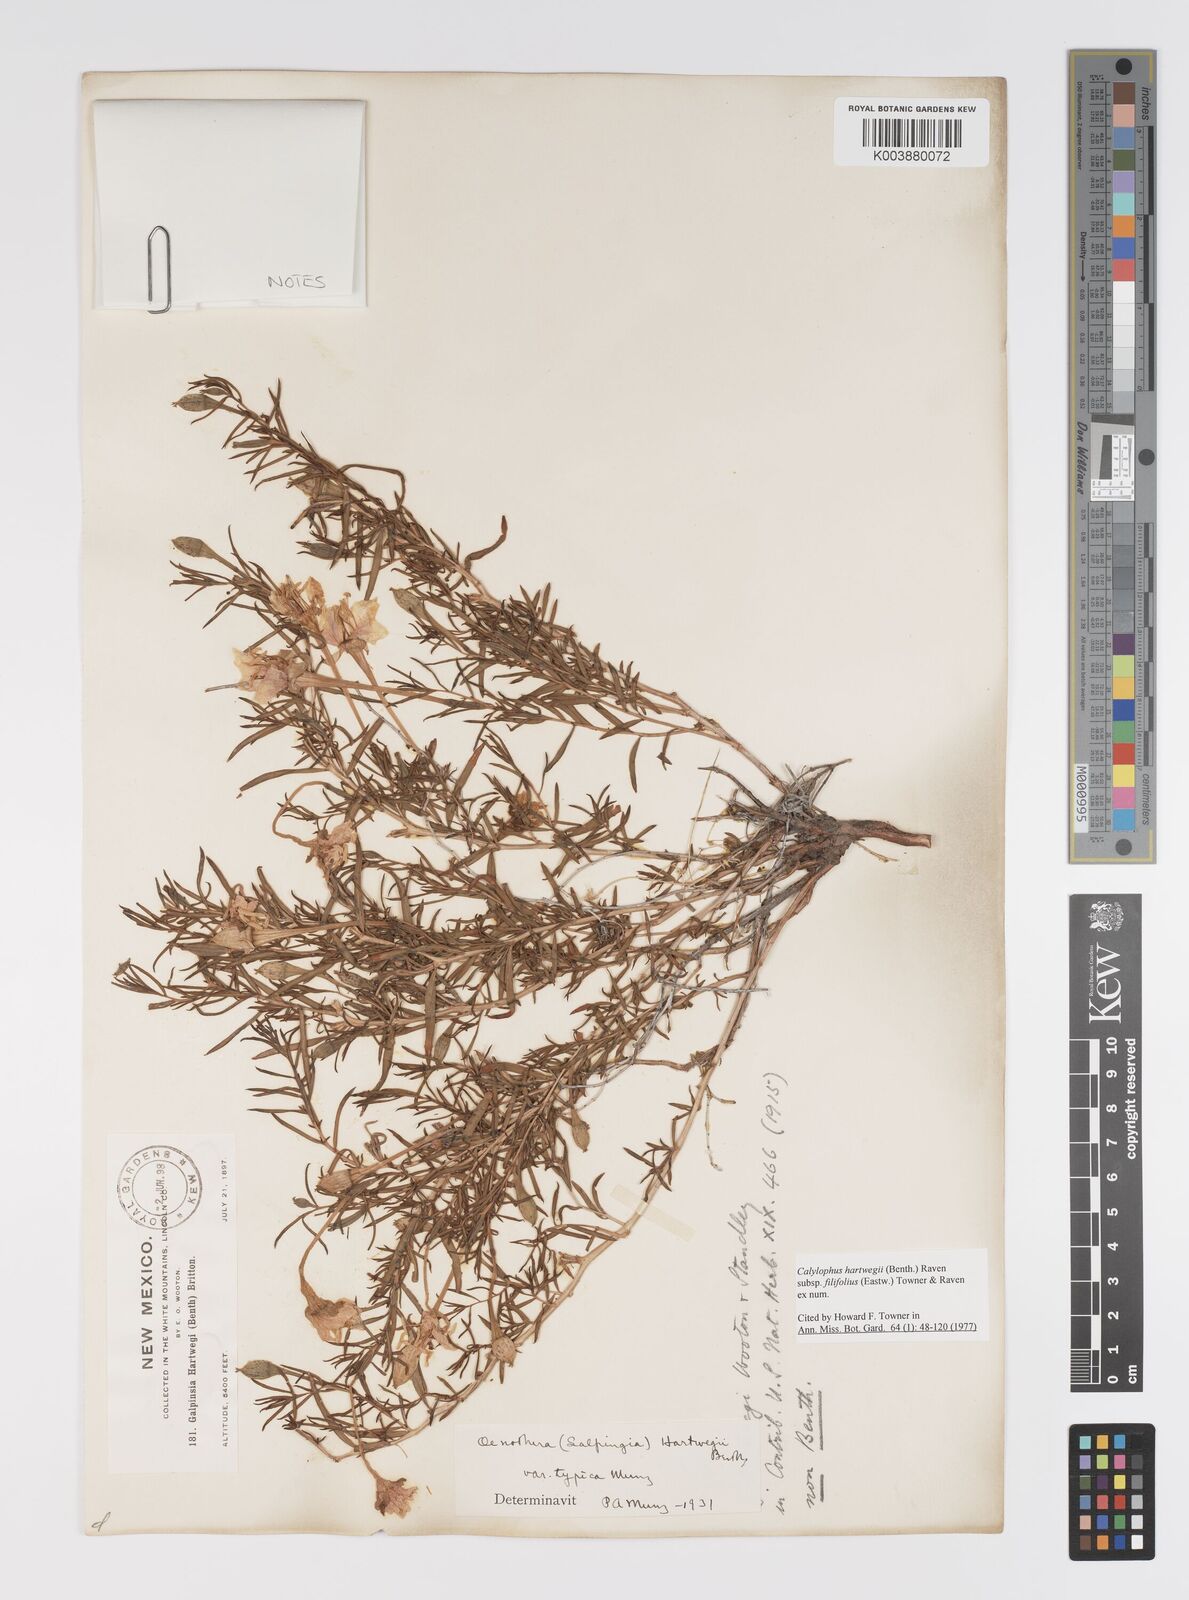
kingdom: Plantae
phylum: Tracheophyta
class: Magnoliopsida
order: Myrtales
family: Onagraceae
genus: Oenothera
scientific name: Oenothera hartwegii
